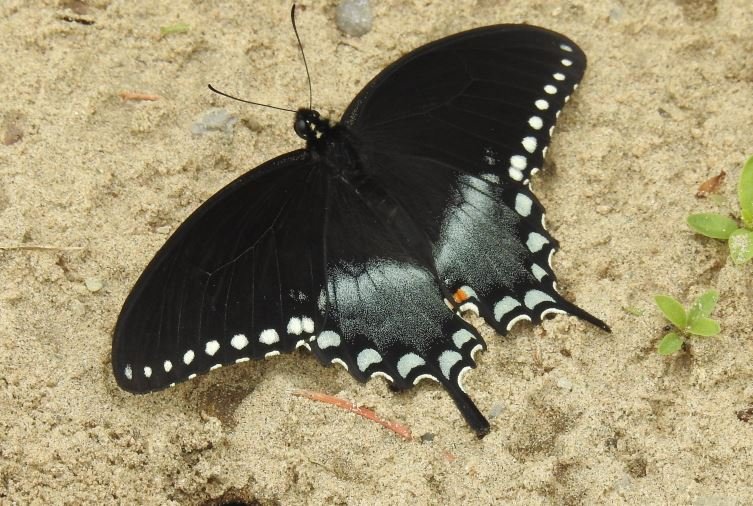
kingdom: Animalia
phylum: Arthropoda
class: Insecta
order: Lepidoptera
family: Papilionidae
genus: Pterourus
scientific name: Pterourus troilus
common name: Spicebush Swallowtail
